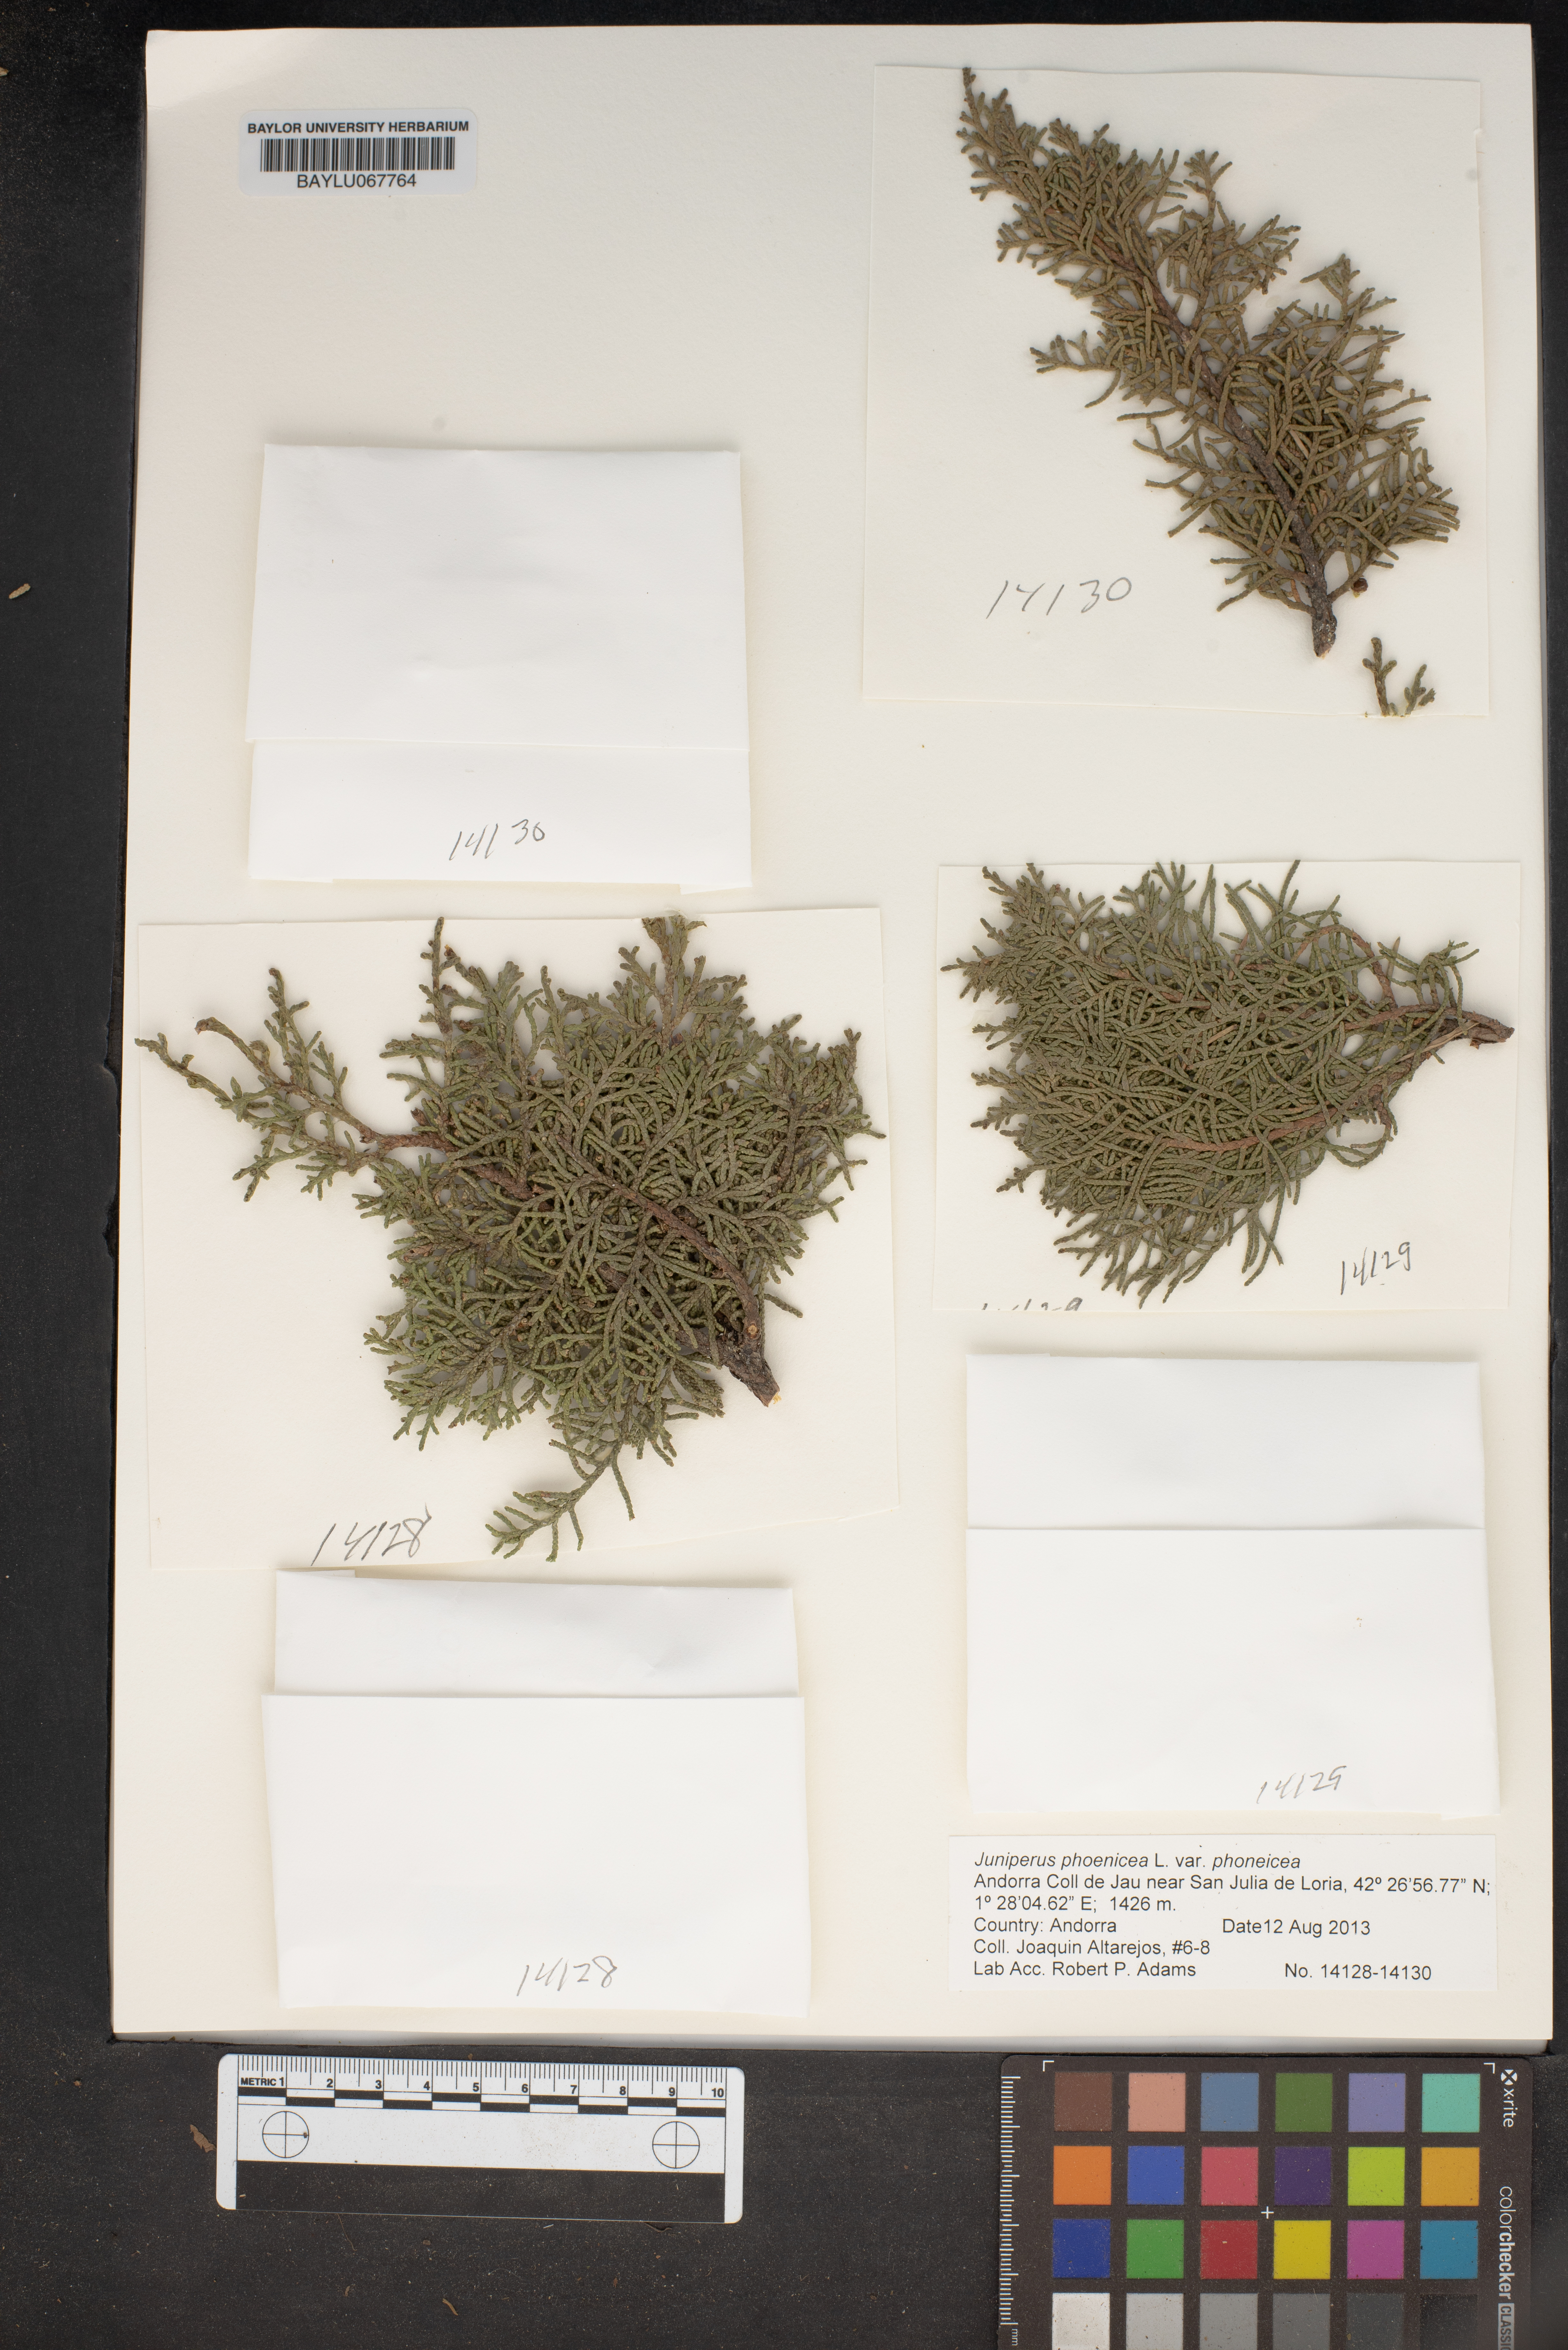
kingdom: Plantae
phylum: Tracheophyta
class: Pinopsida
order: Pinales
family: Cupressaceae
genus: Juniperus
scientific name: Juniperus phoenicea
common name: Phoenician juniper
